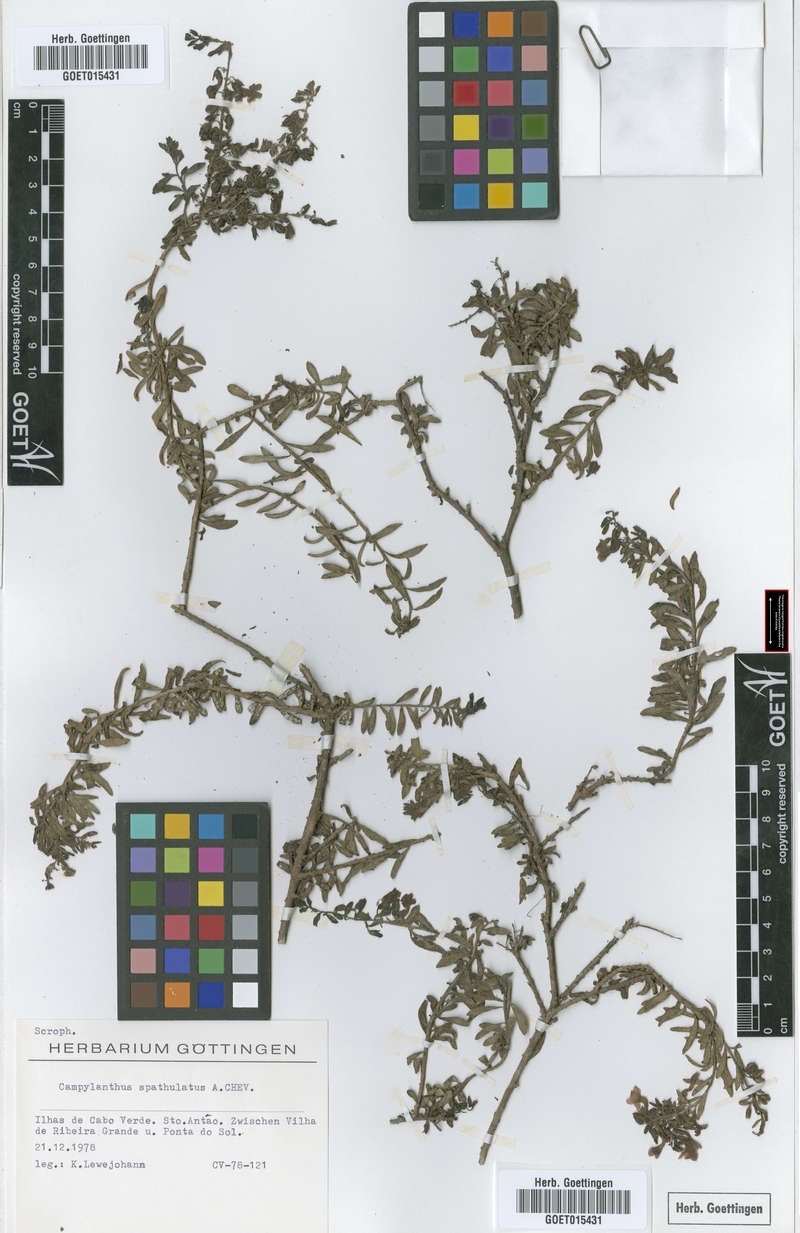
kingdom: Plantae
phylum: Tracheophyta
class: Magnoliopsida
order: Lamiales
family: Plantaginaceae
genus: Campylanthus
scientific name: Campylanthus glaber
